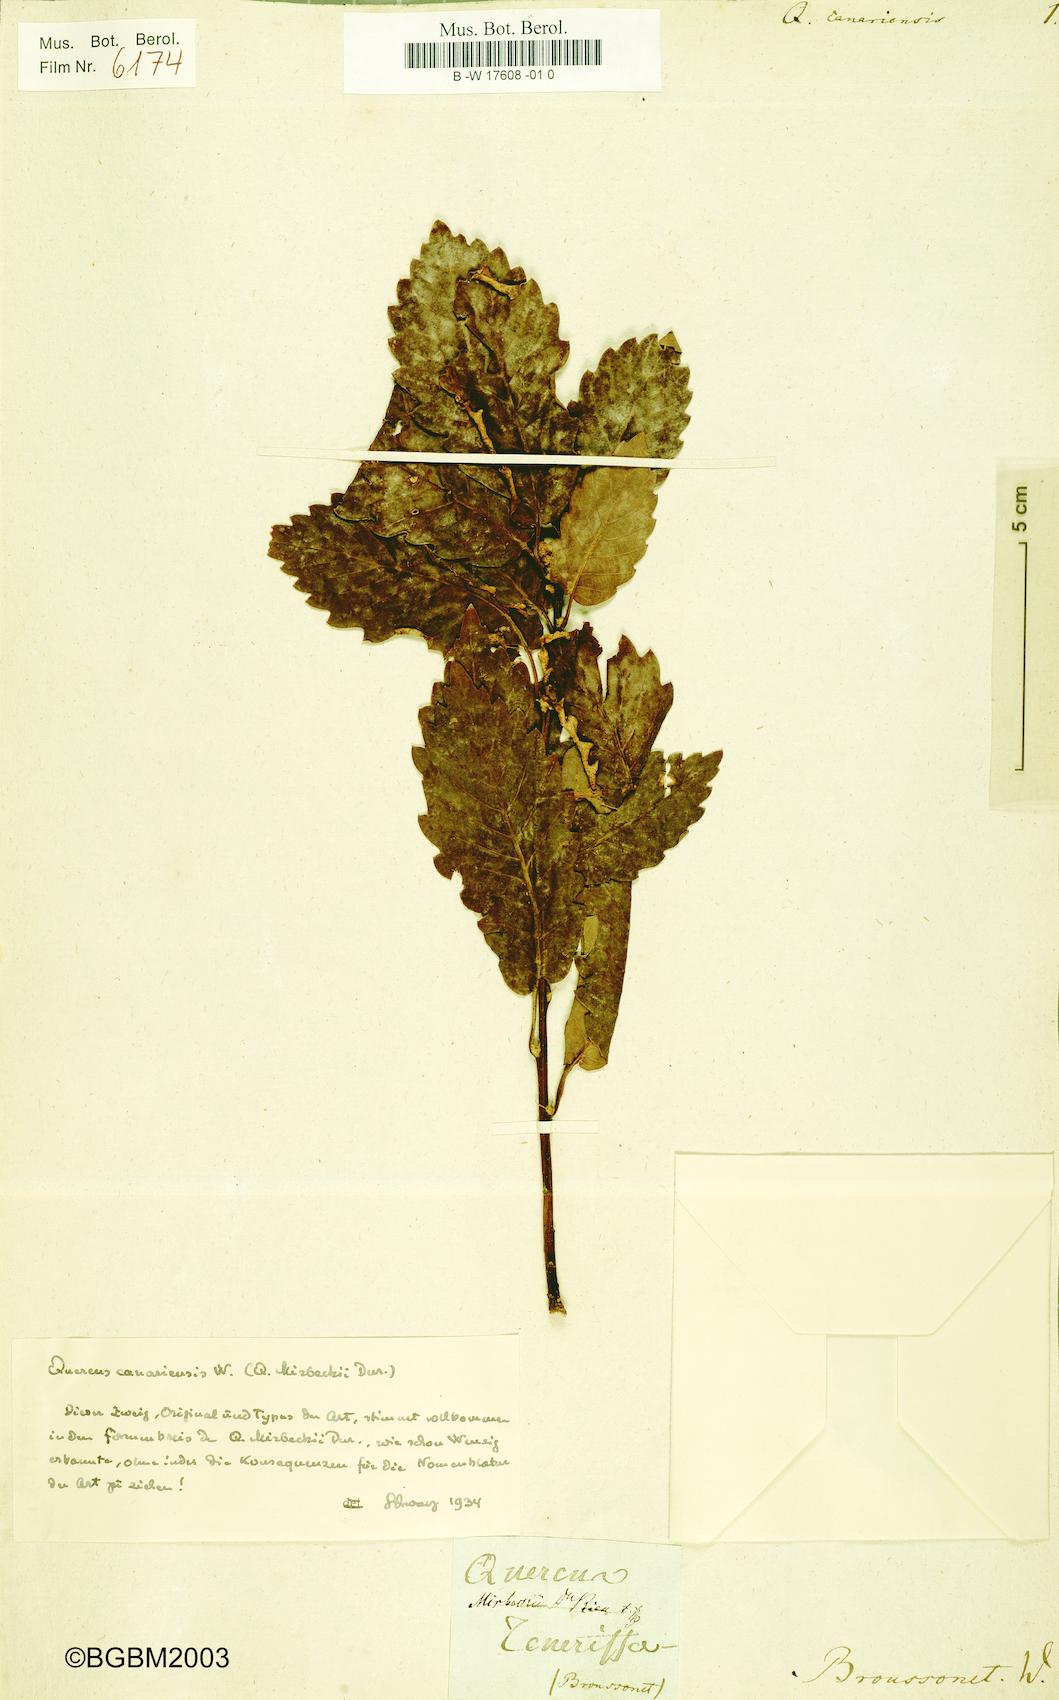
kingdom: Plantae
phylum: Tracheophyta
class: Magnoliopsida
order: Fagales
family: Fagaceae
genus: Quercus
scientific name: Quercus canariensis
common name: Algerian oak
